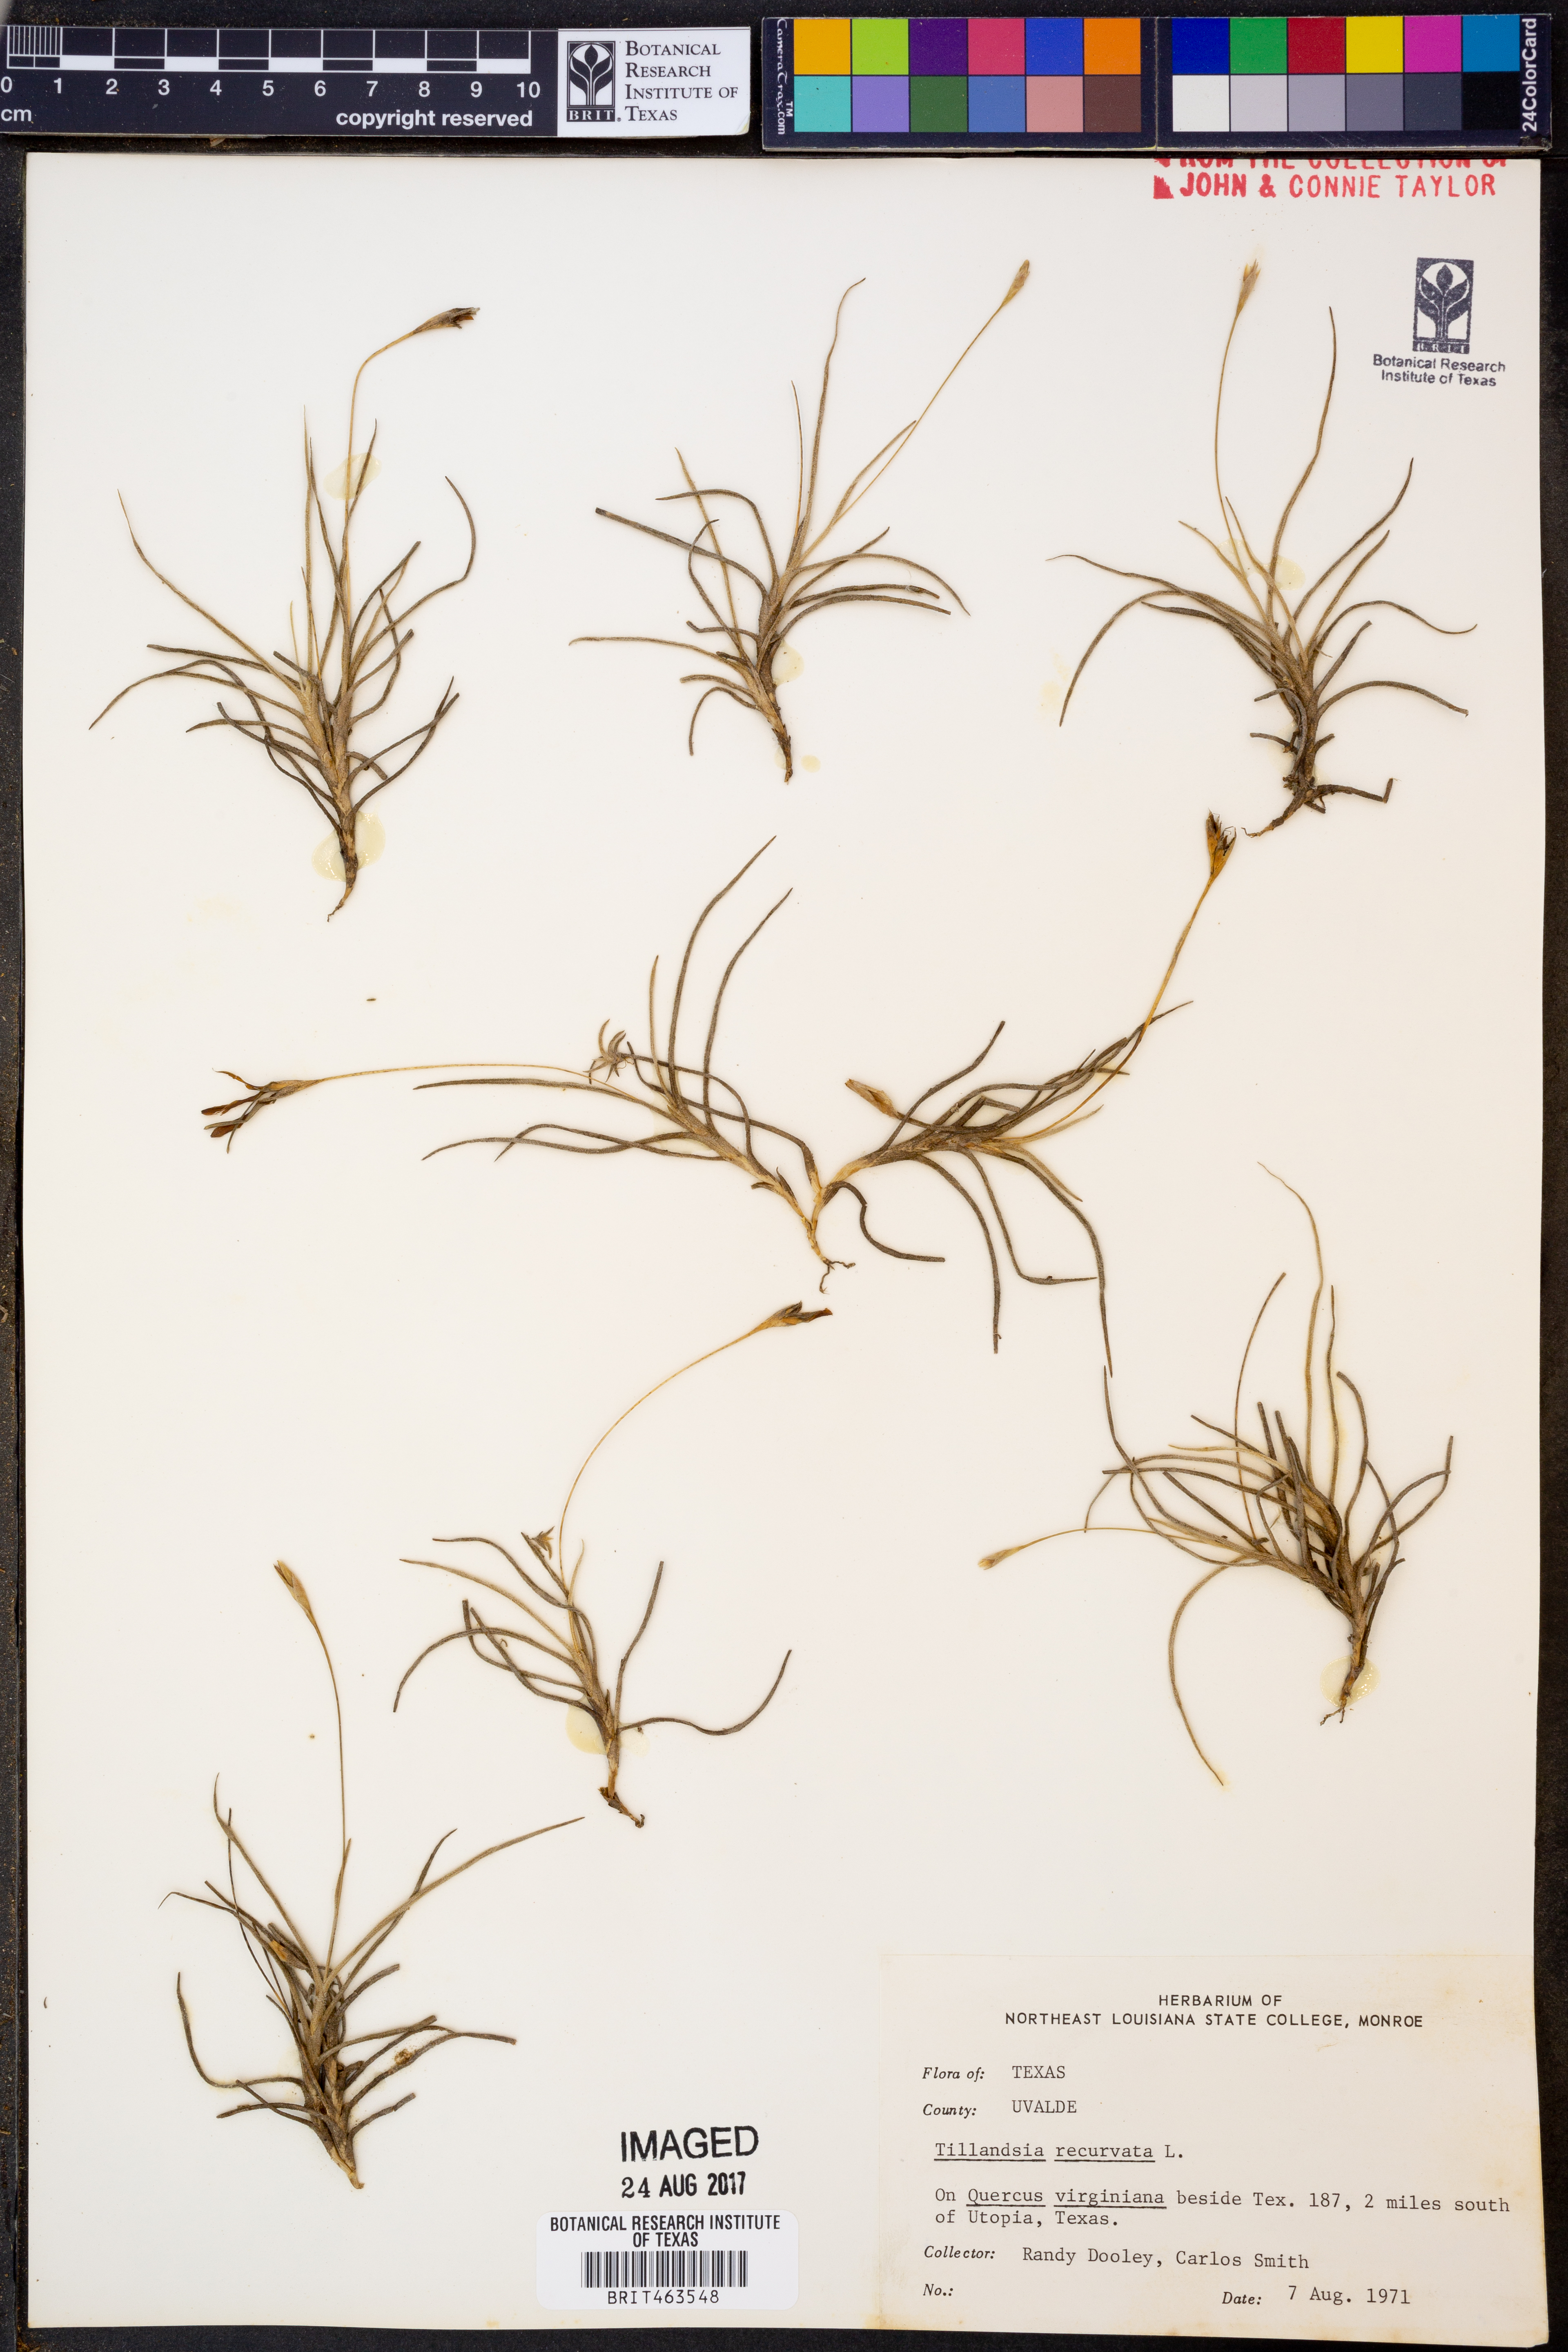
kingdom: Plantae
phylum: Tracheophyta
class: Liliopsida
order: Poales
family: Bromeliaceae
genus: Tillandsia
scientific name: Tillandsia recurvata
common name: Small ballmoss
